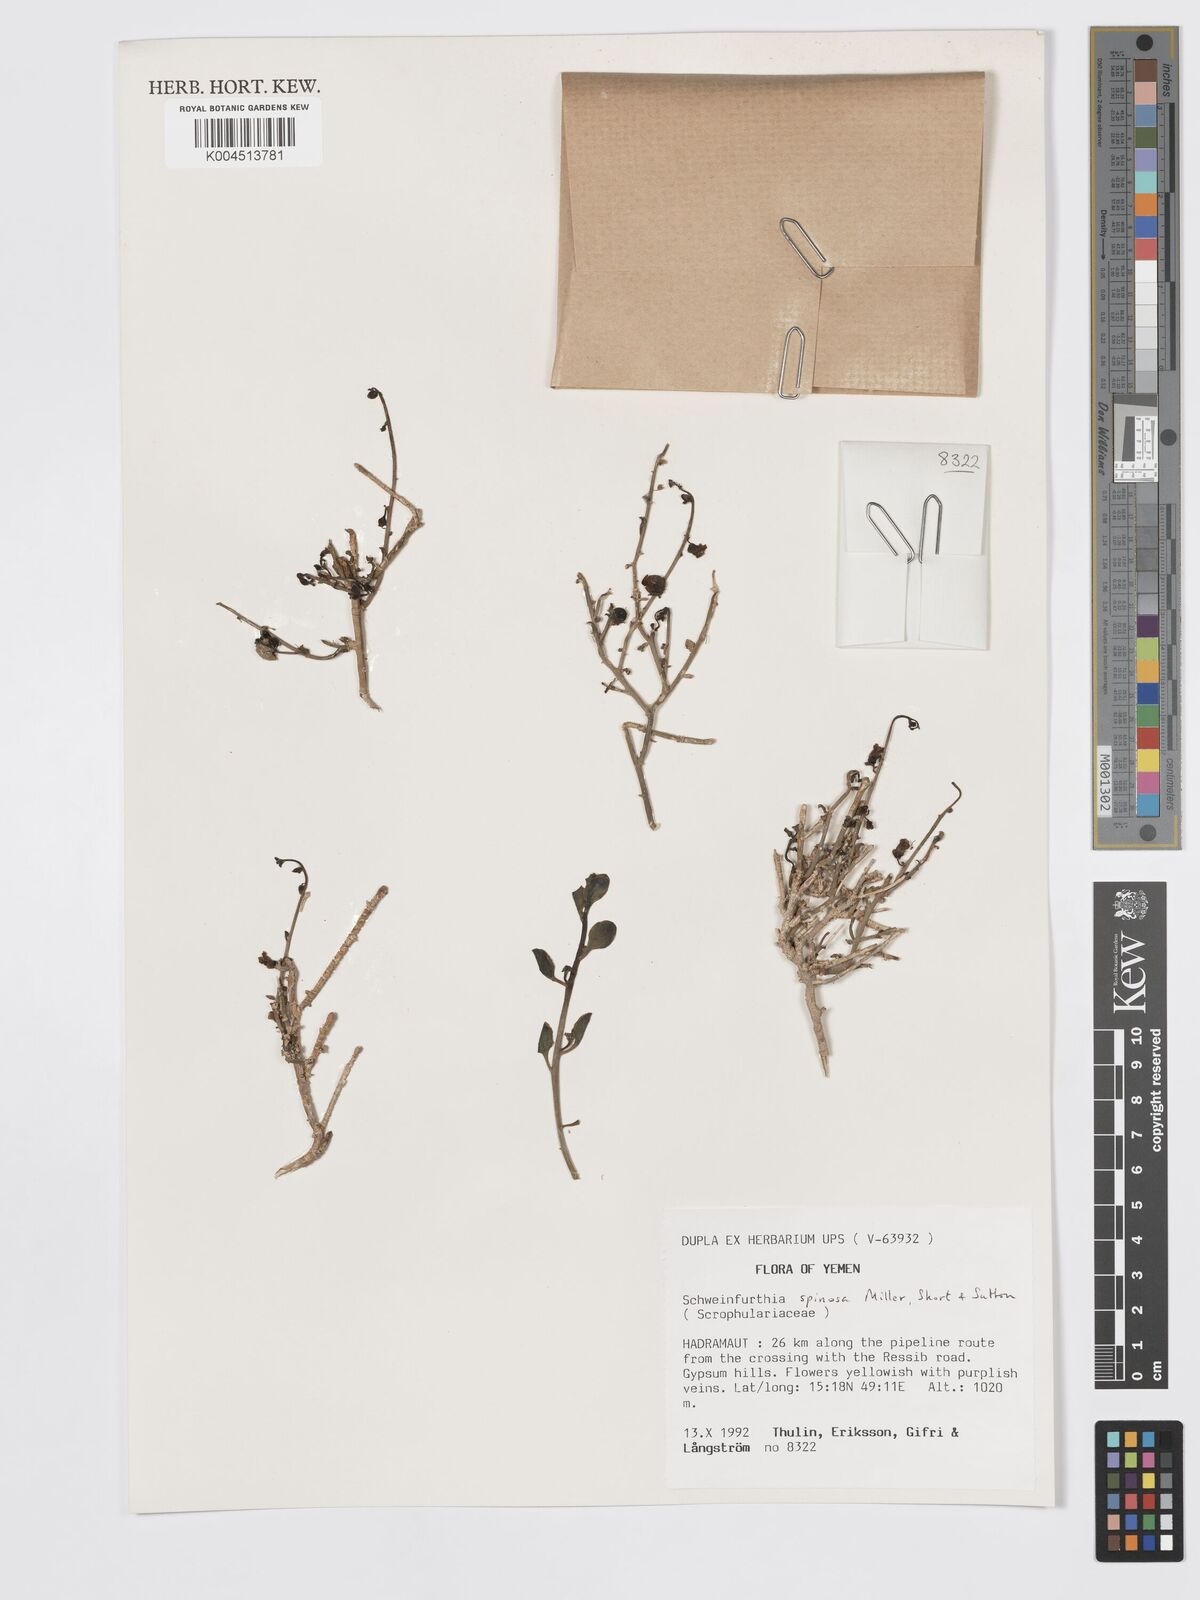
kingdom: Plantae
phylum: Tracheophyta
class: Magnoliopsida
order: Lamiales
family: Plantaginaceae
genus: Schweinfurthia
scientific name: Schweinfurthia spinosa
